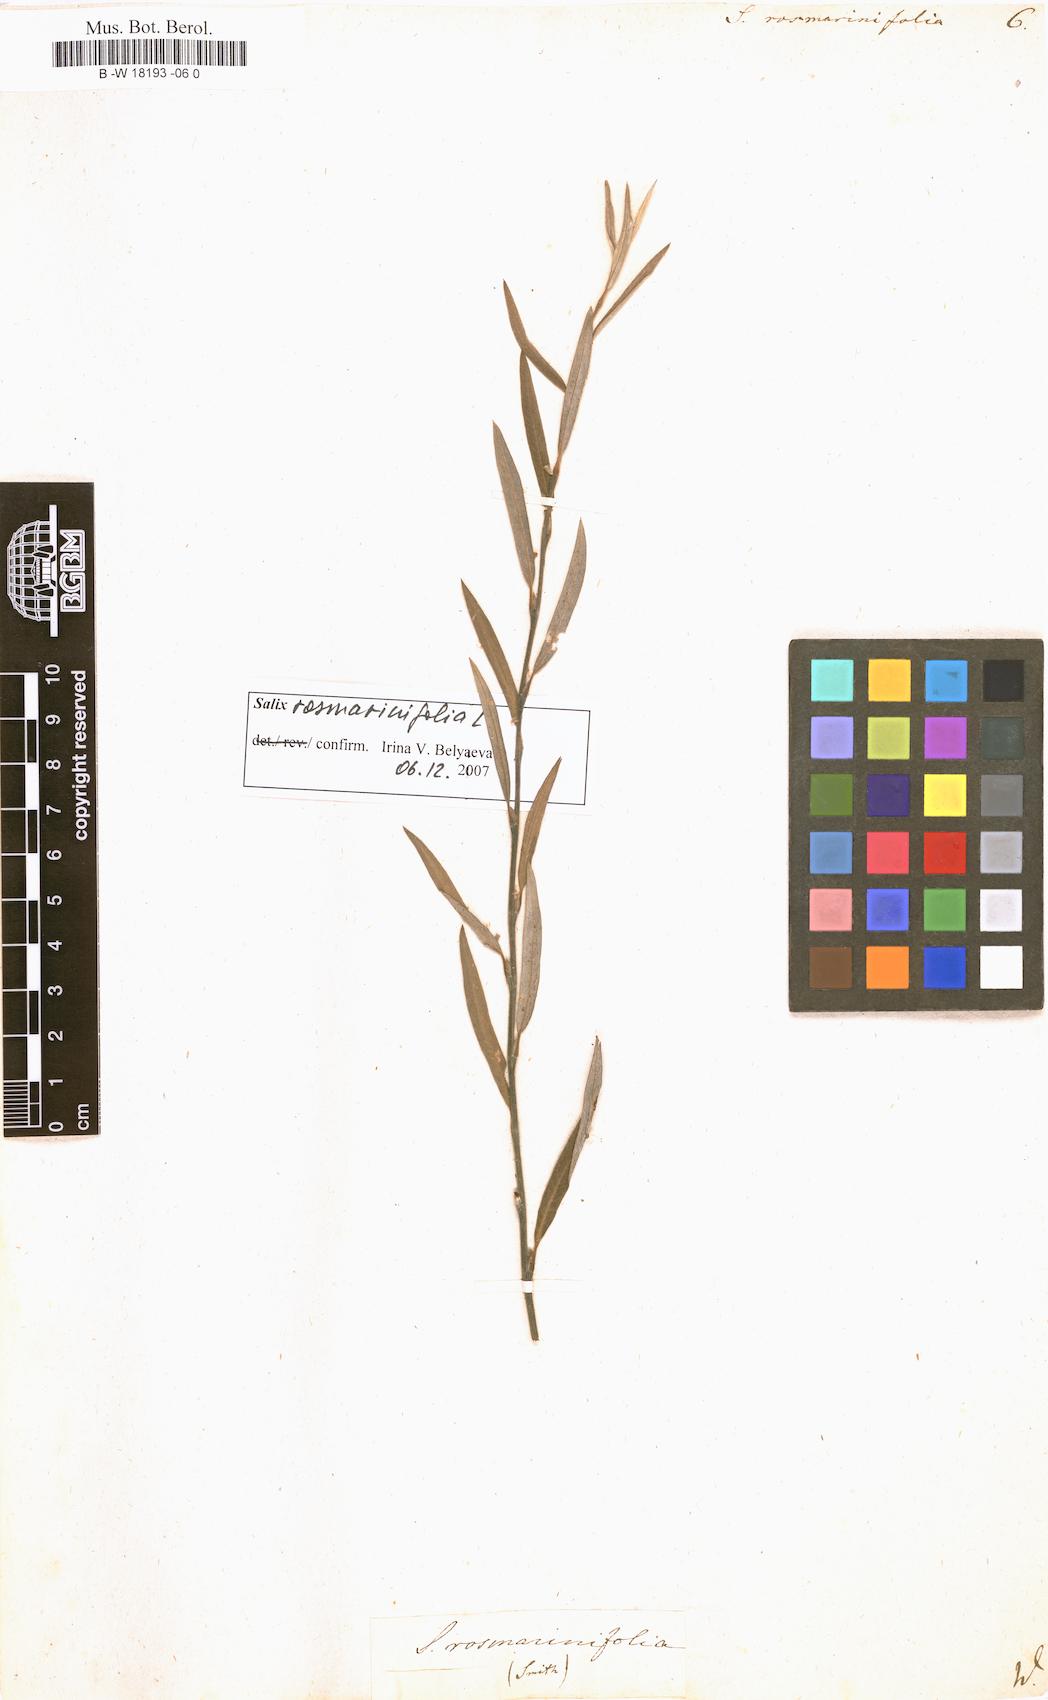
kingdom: Plantae
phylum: Tracheophyta
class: Magnoliopsida
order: Malpighiales
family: Salicaceae
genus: Salix
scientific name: Salix rosmarinifolia
